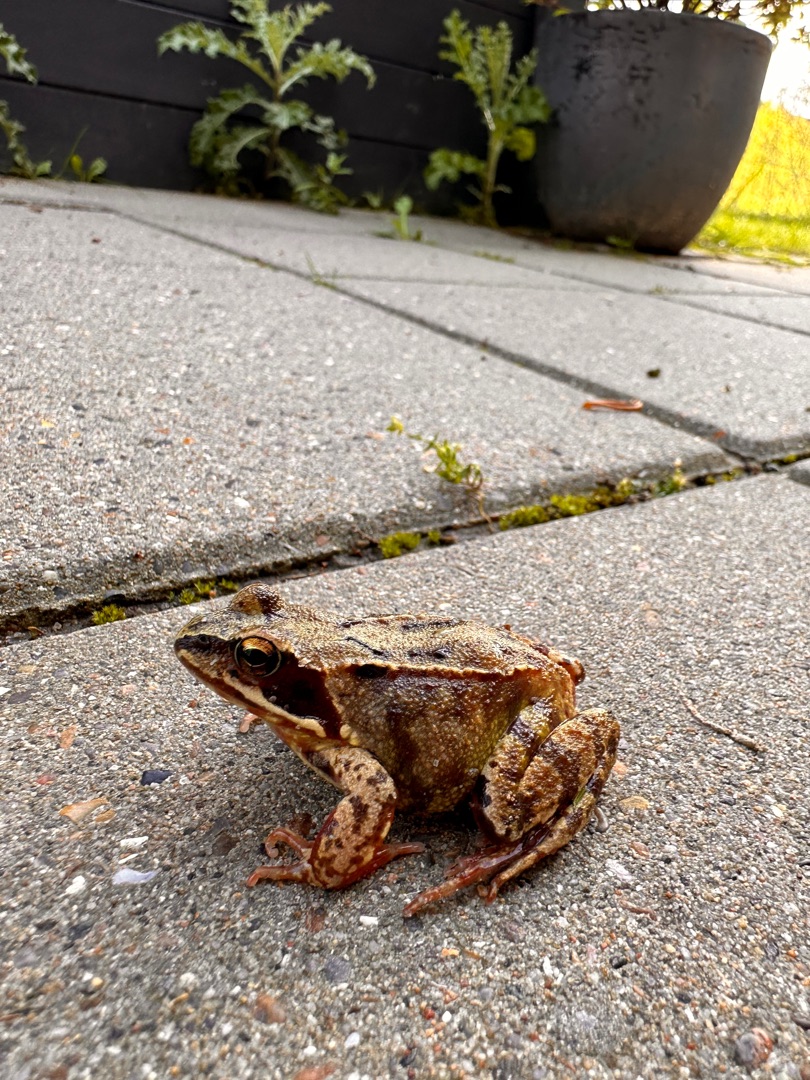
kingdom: Animalia
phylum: Chordata
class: Amphibia
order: Anura
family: Ranidae
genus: Rana
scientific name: Rana temporaria
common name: Butsnudet frø
